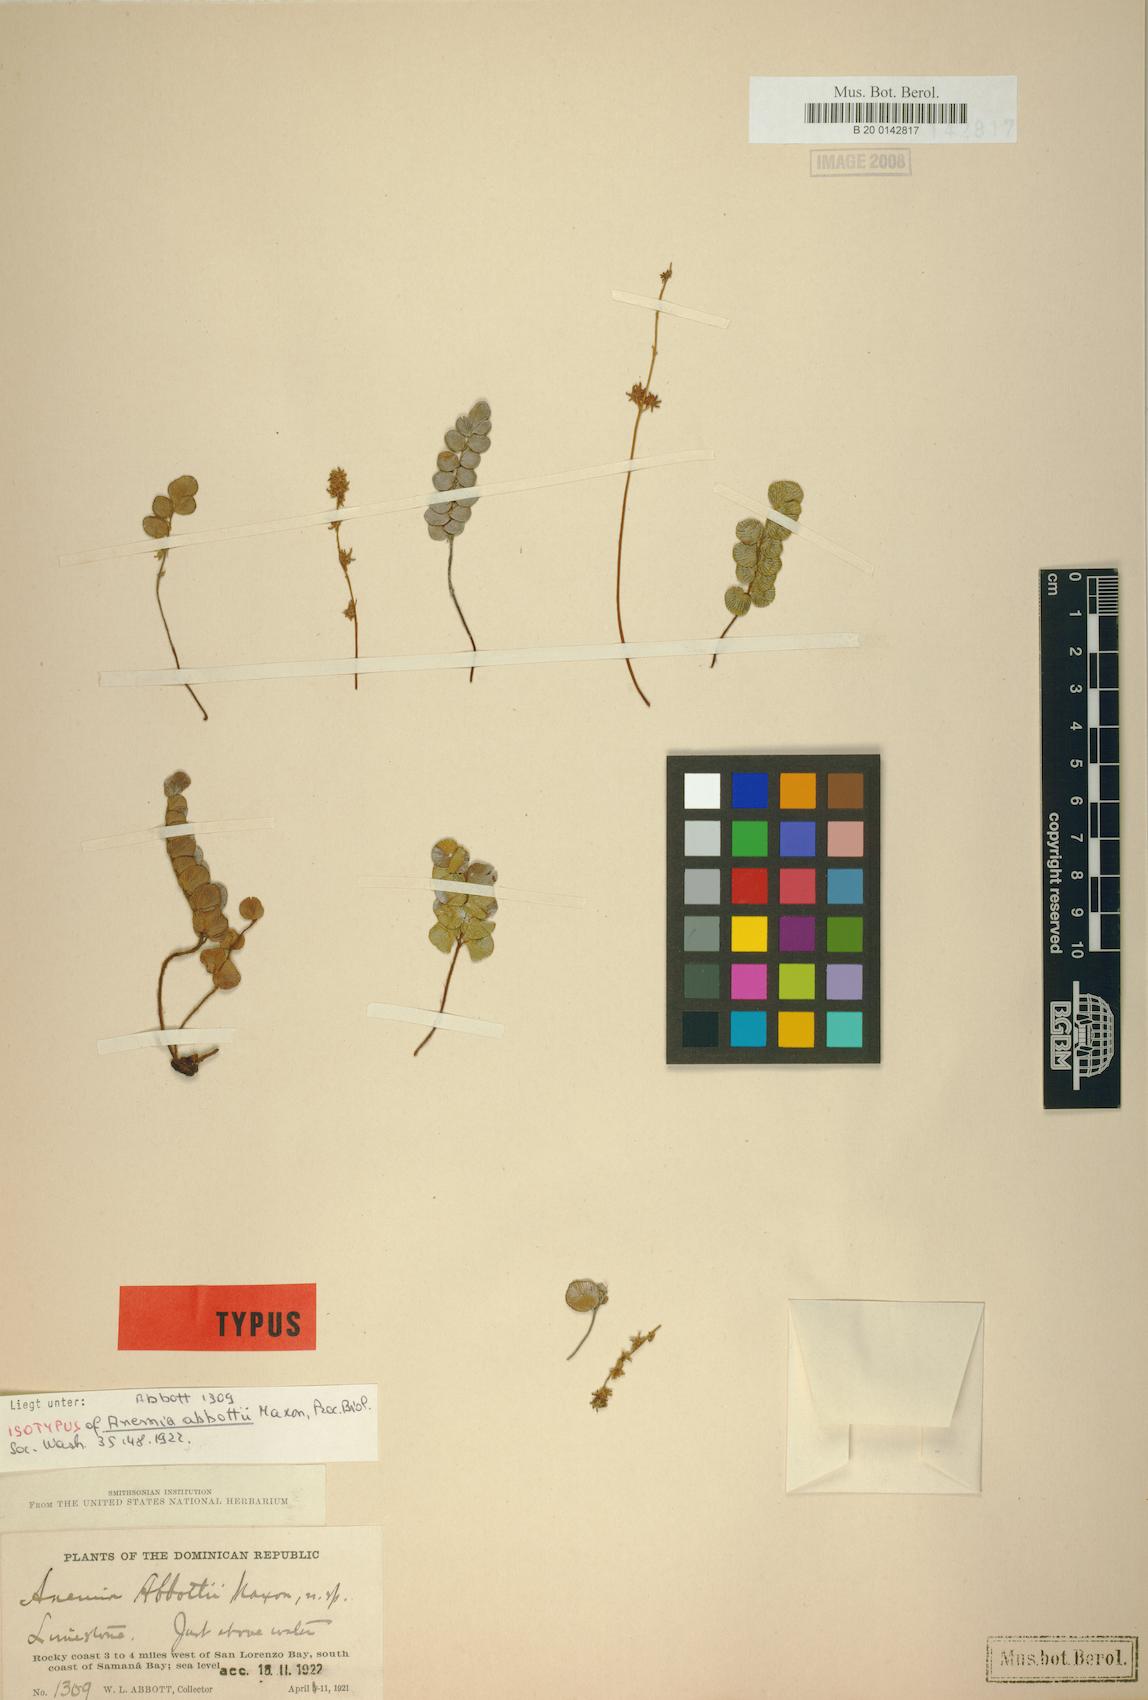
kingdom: Plantae
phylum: Tracheophyta
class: Polypodiopsida
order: Schizaeales
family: Anemiaceae
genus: Anemia
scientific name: Anemia abbottii
